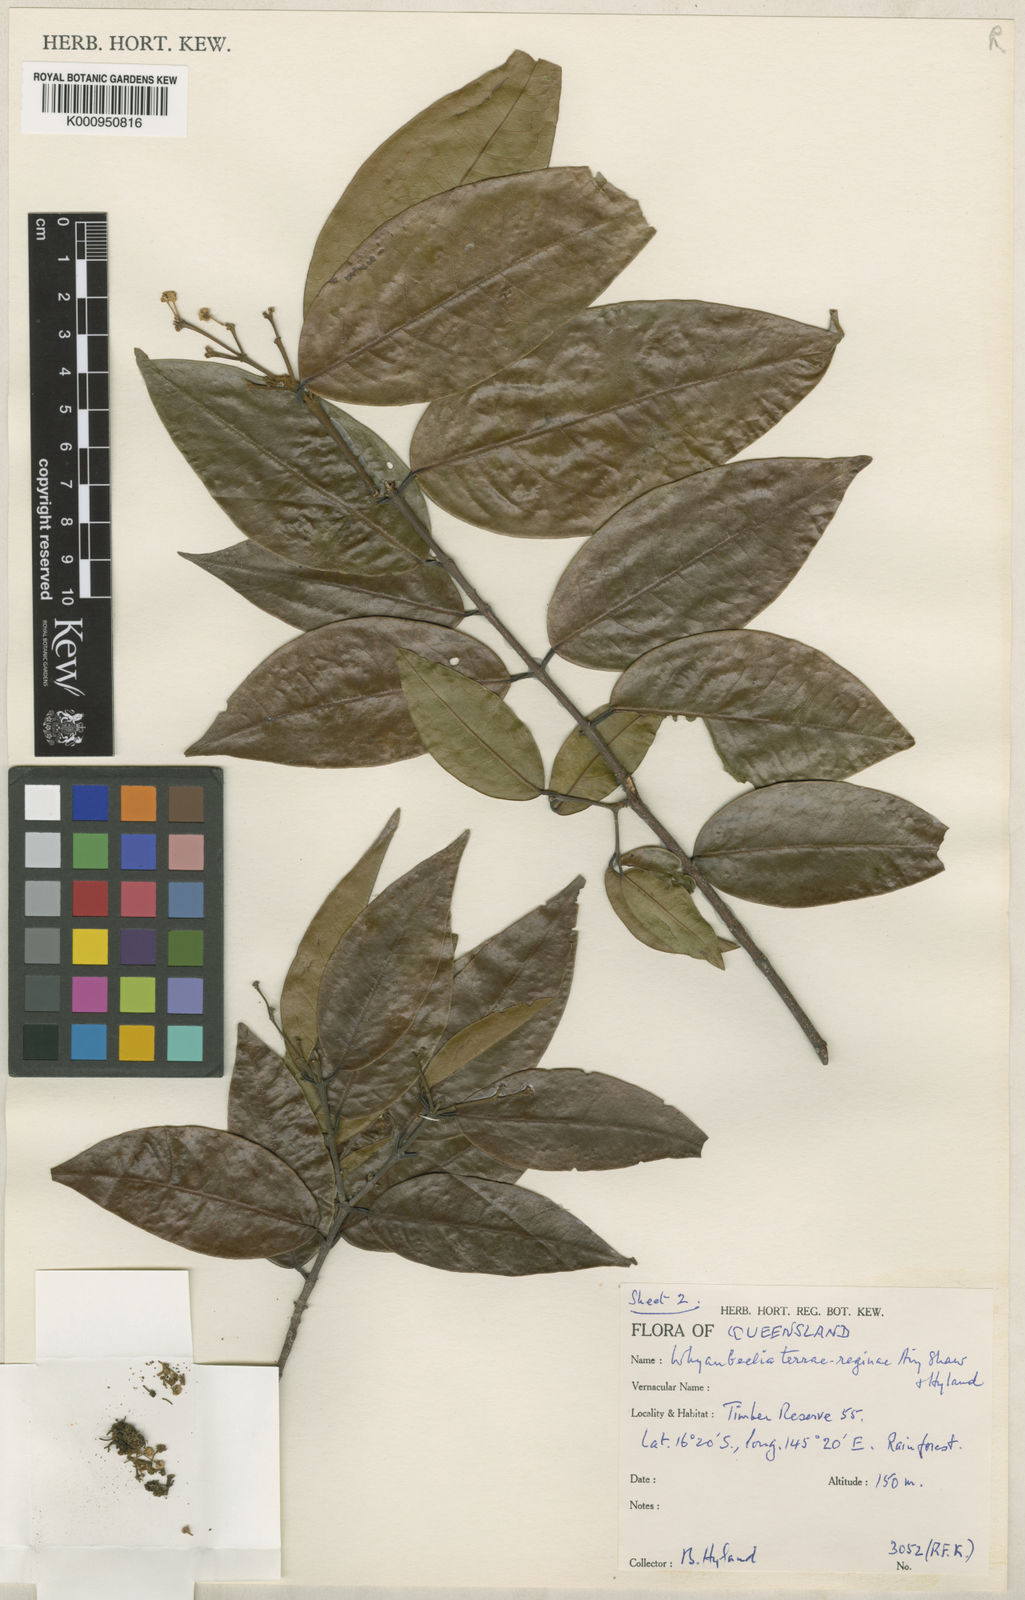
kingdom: Plantae
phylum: Tracheophyta
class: Magnoliopsida
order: Malpighiales
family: Picrodendraceae
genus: Whyanbeelia
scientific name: Whyanbeelia terrae-reginae
